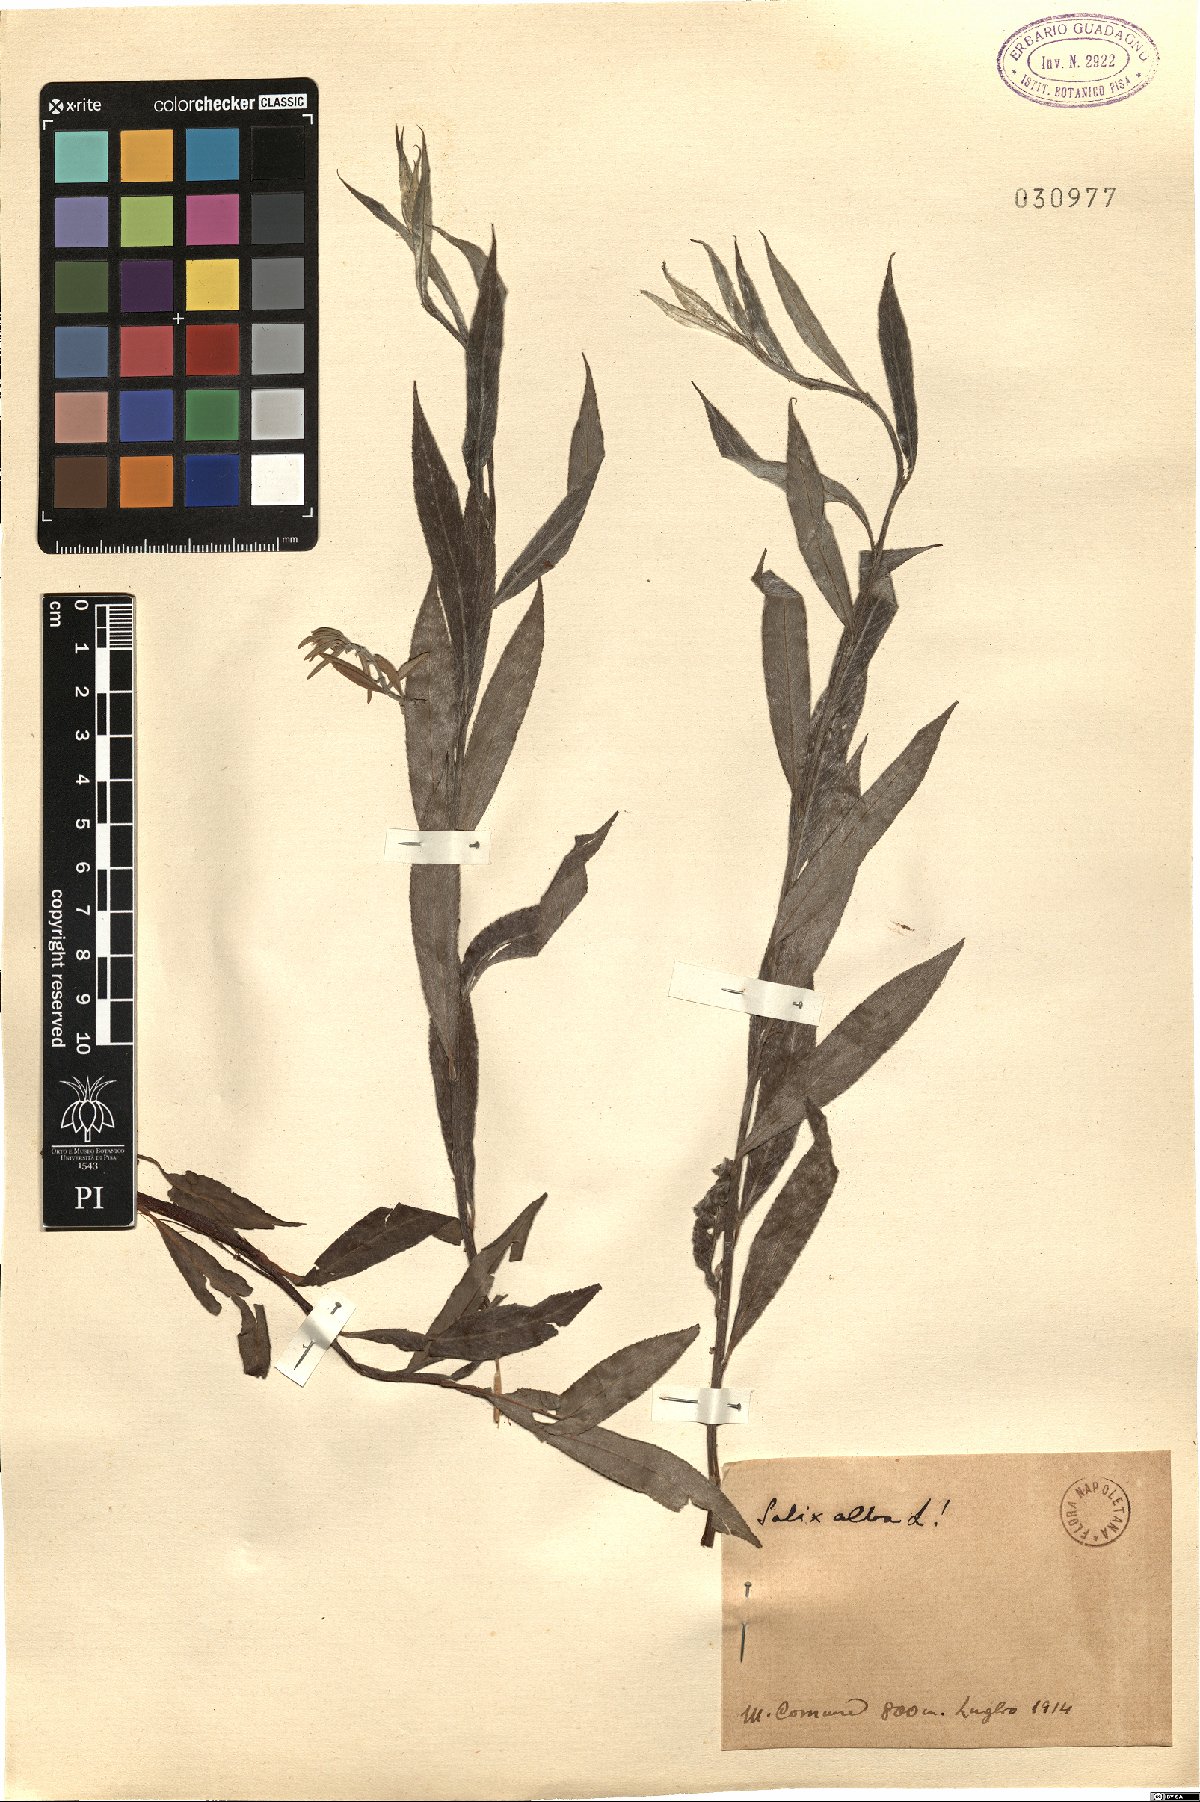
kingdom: Plantae
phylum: Tracheophyta
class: Magnoliopsida
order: Malpighiales
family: Salicaceae
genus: Salix
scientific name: Salix alba
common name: White willow
